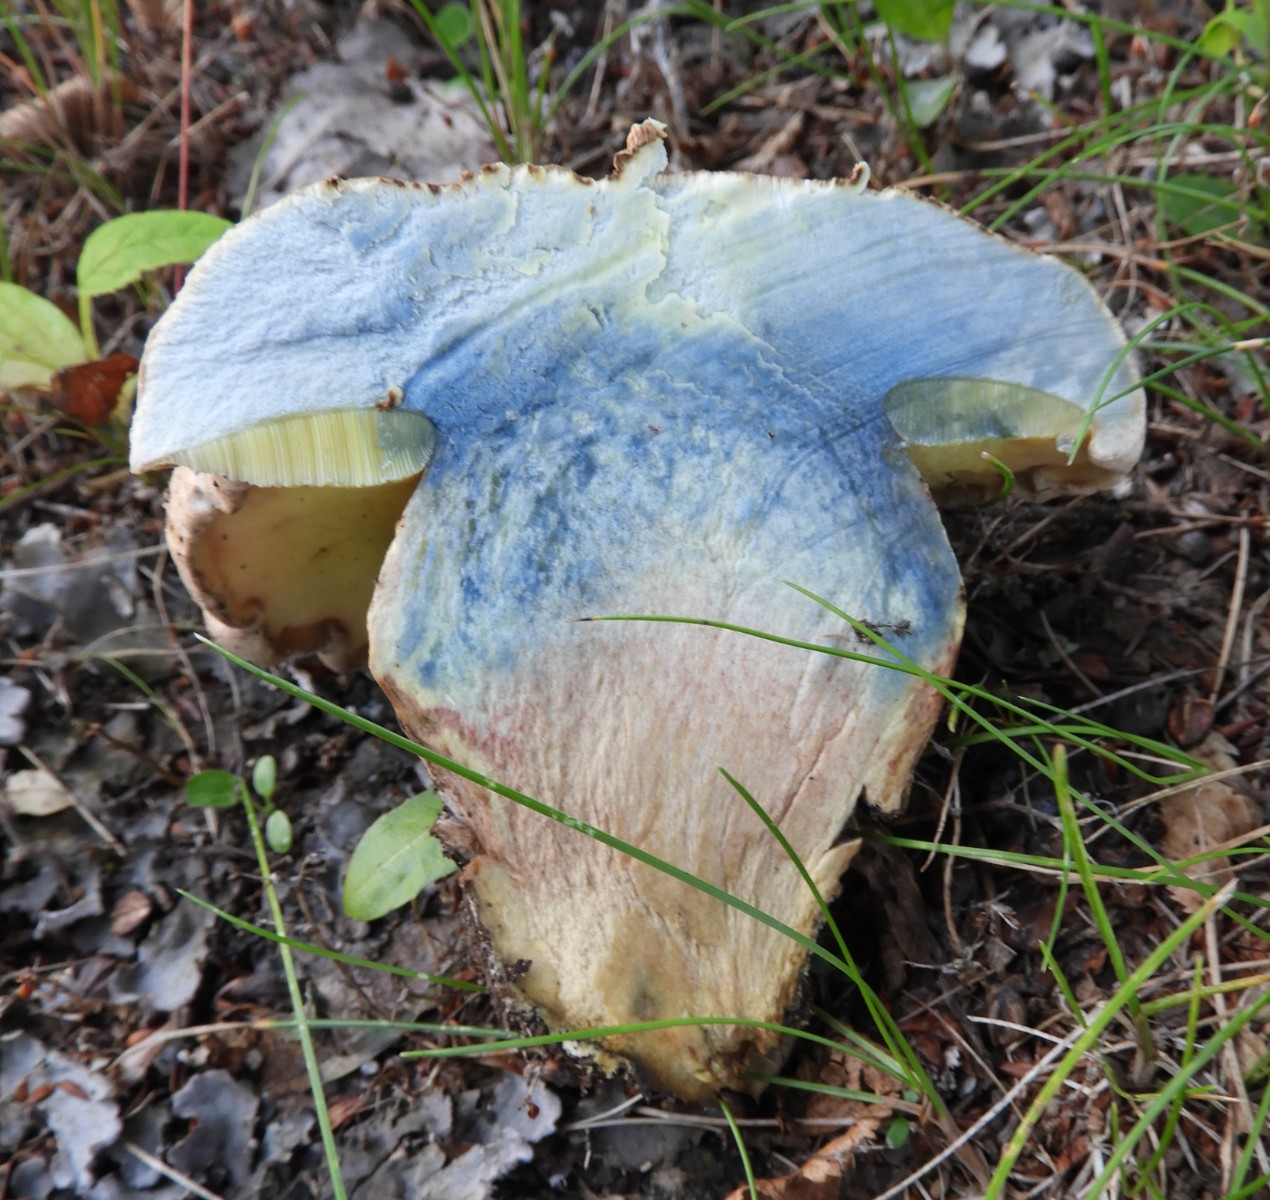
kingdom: Fungi
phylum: Basidiomycota
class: Agaricomycetes
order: Boletales
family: Boletaceae
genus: Caloboletus
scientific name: Caloboletus radicans
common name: rod-rørhat
